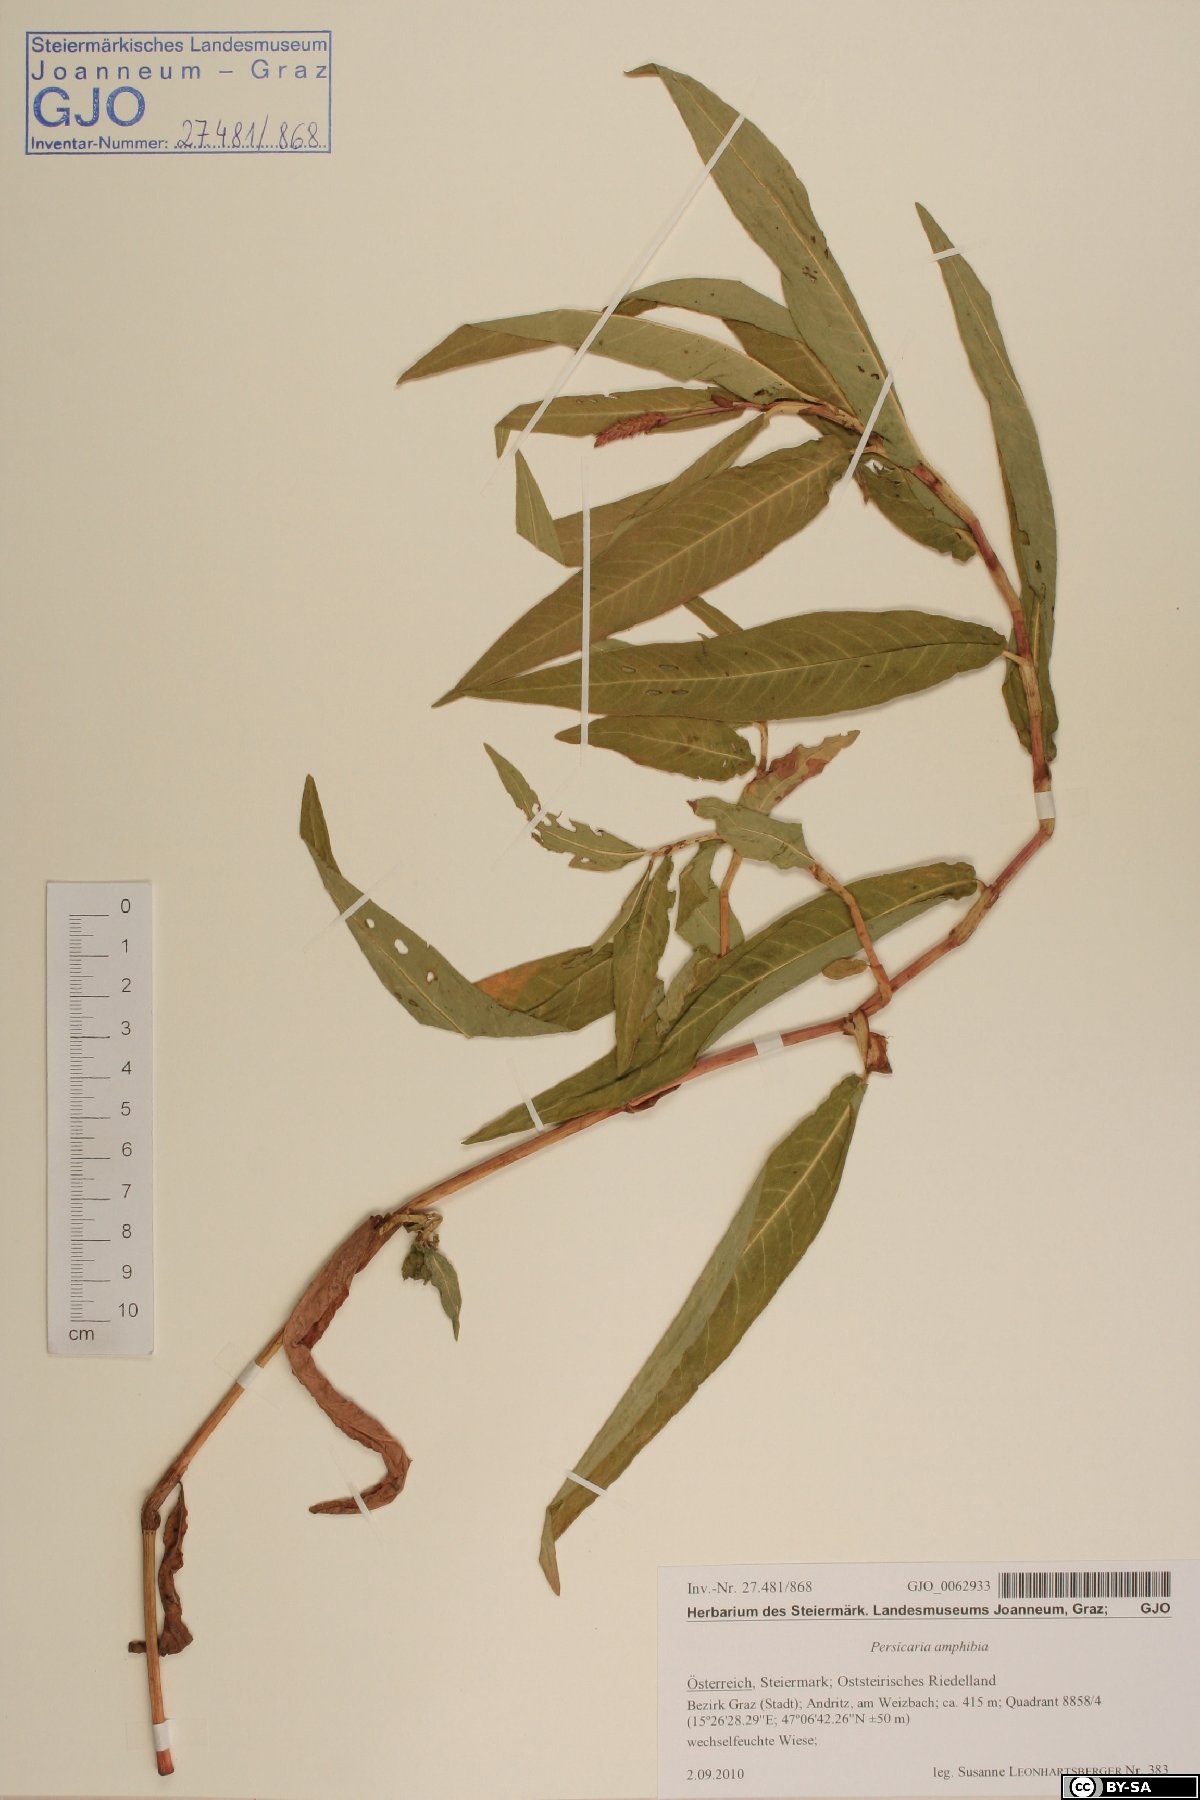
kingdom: Plantae
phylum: Tracheophyta
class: Magnoliopsida
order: Caryophyllales
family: Polygonaceae
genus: Persicaria
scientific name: Persicaria amphibia
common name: Amphibious bistort
